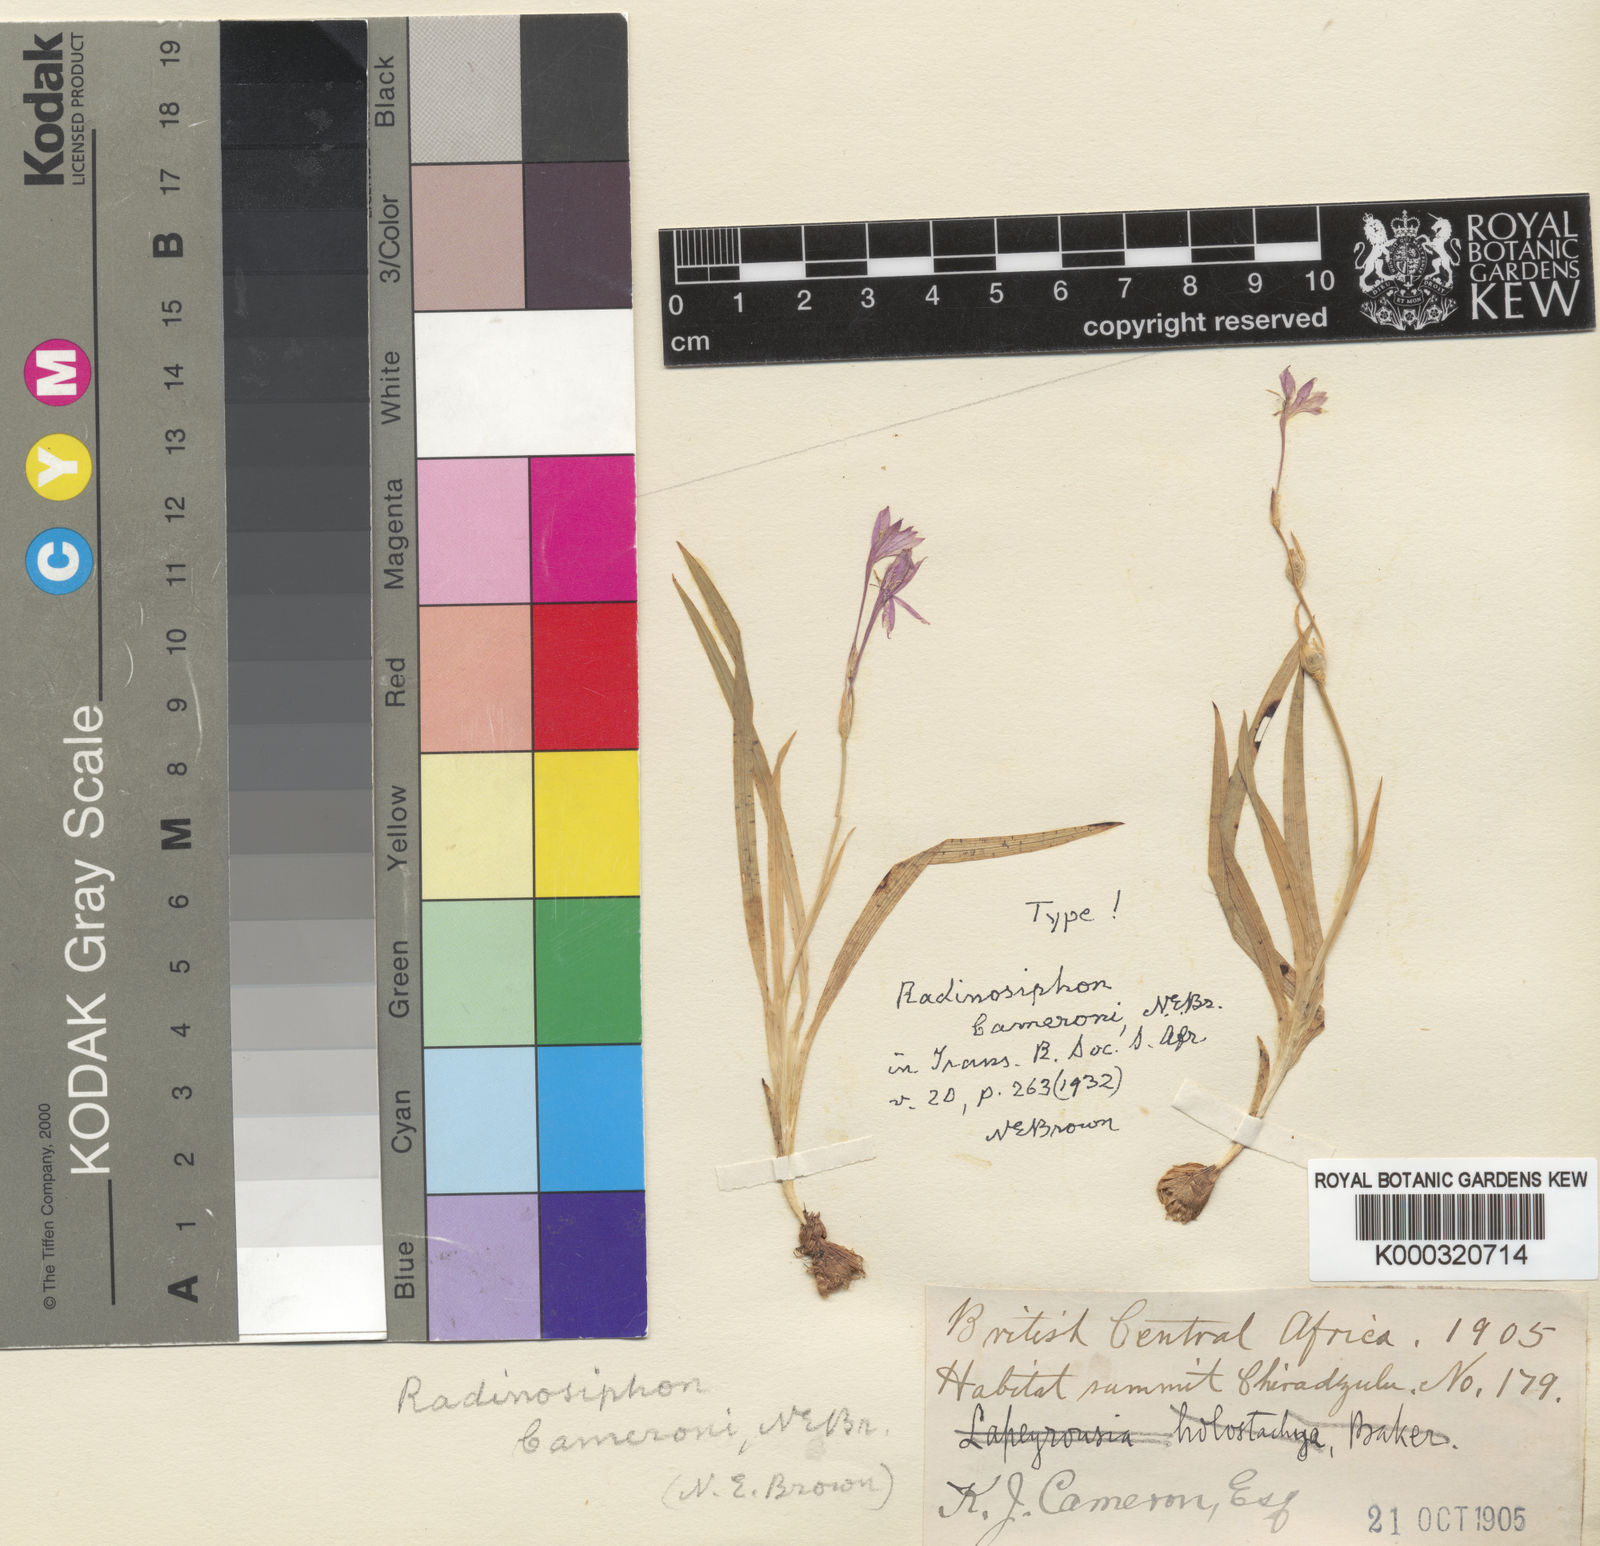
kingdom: Plantae
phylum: Tracheophyta
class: Liliopsida
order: Asparagales
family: Iridaceae
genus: Radinosiphon
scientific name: Radinosiphon leptostachya
